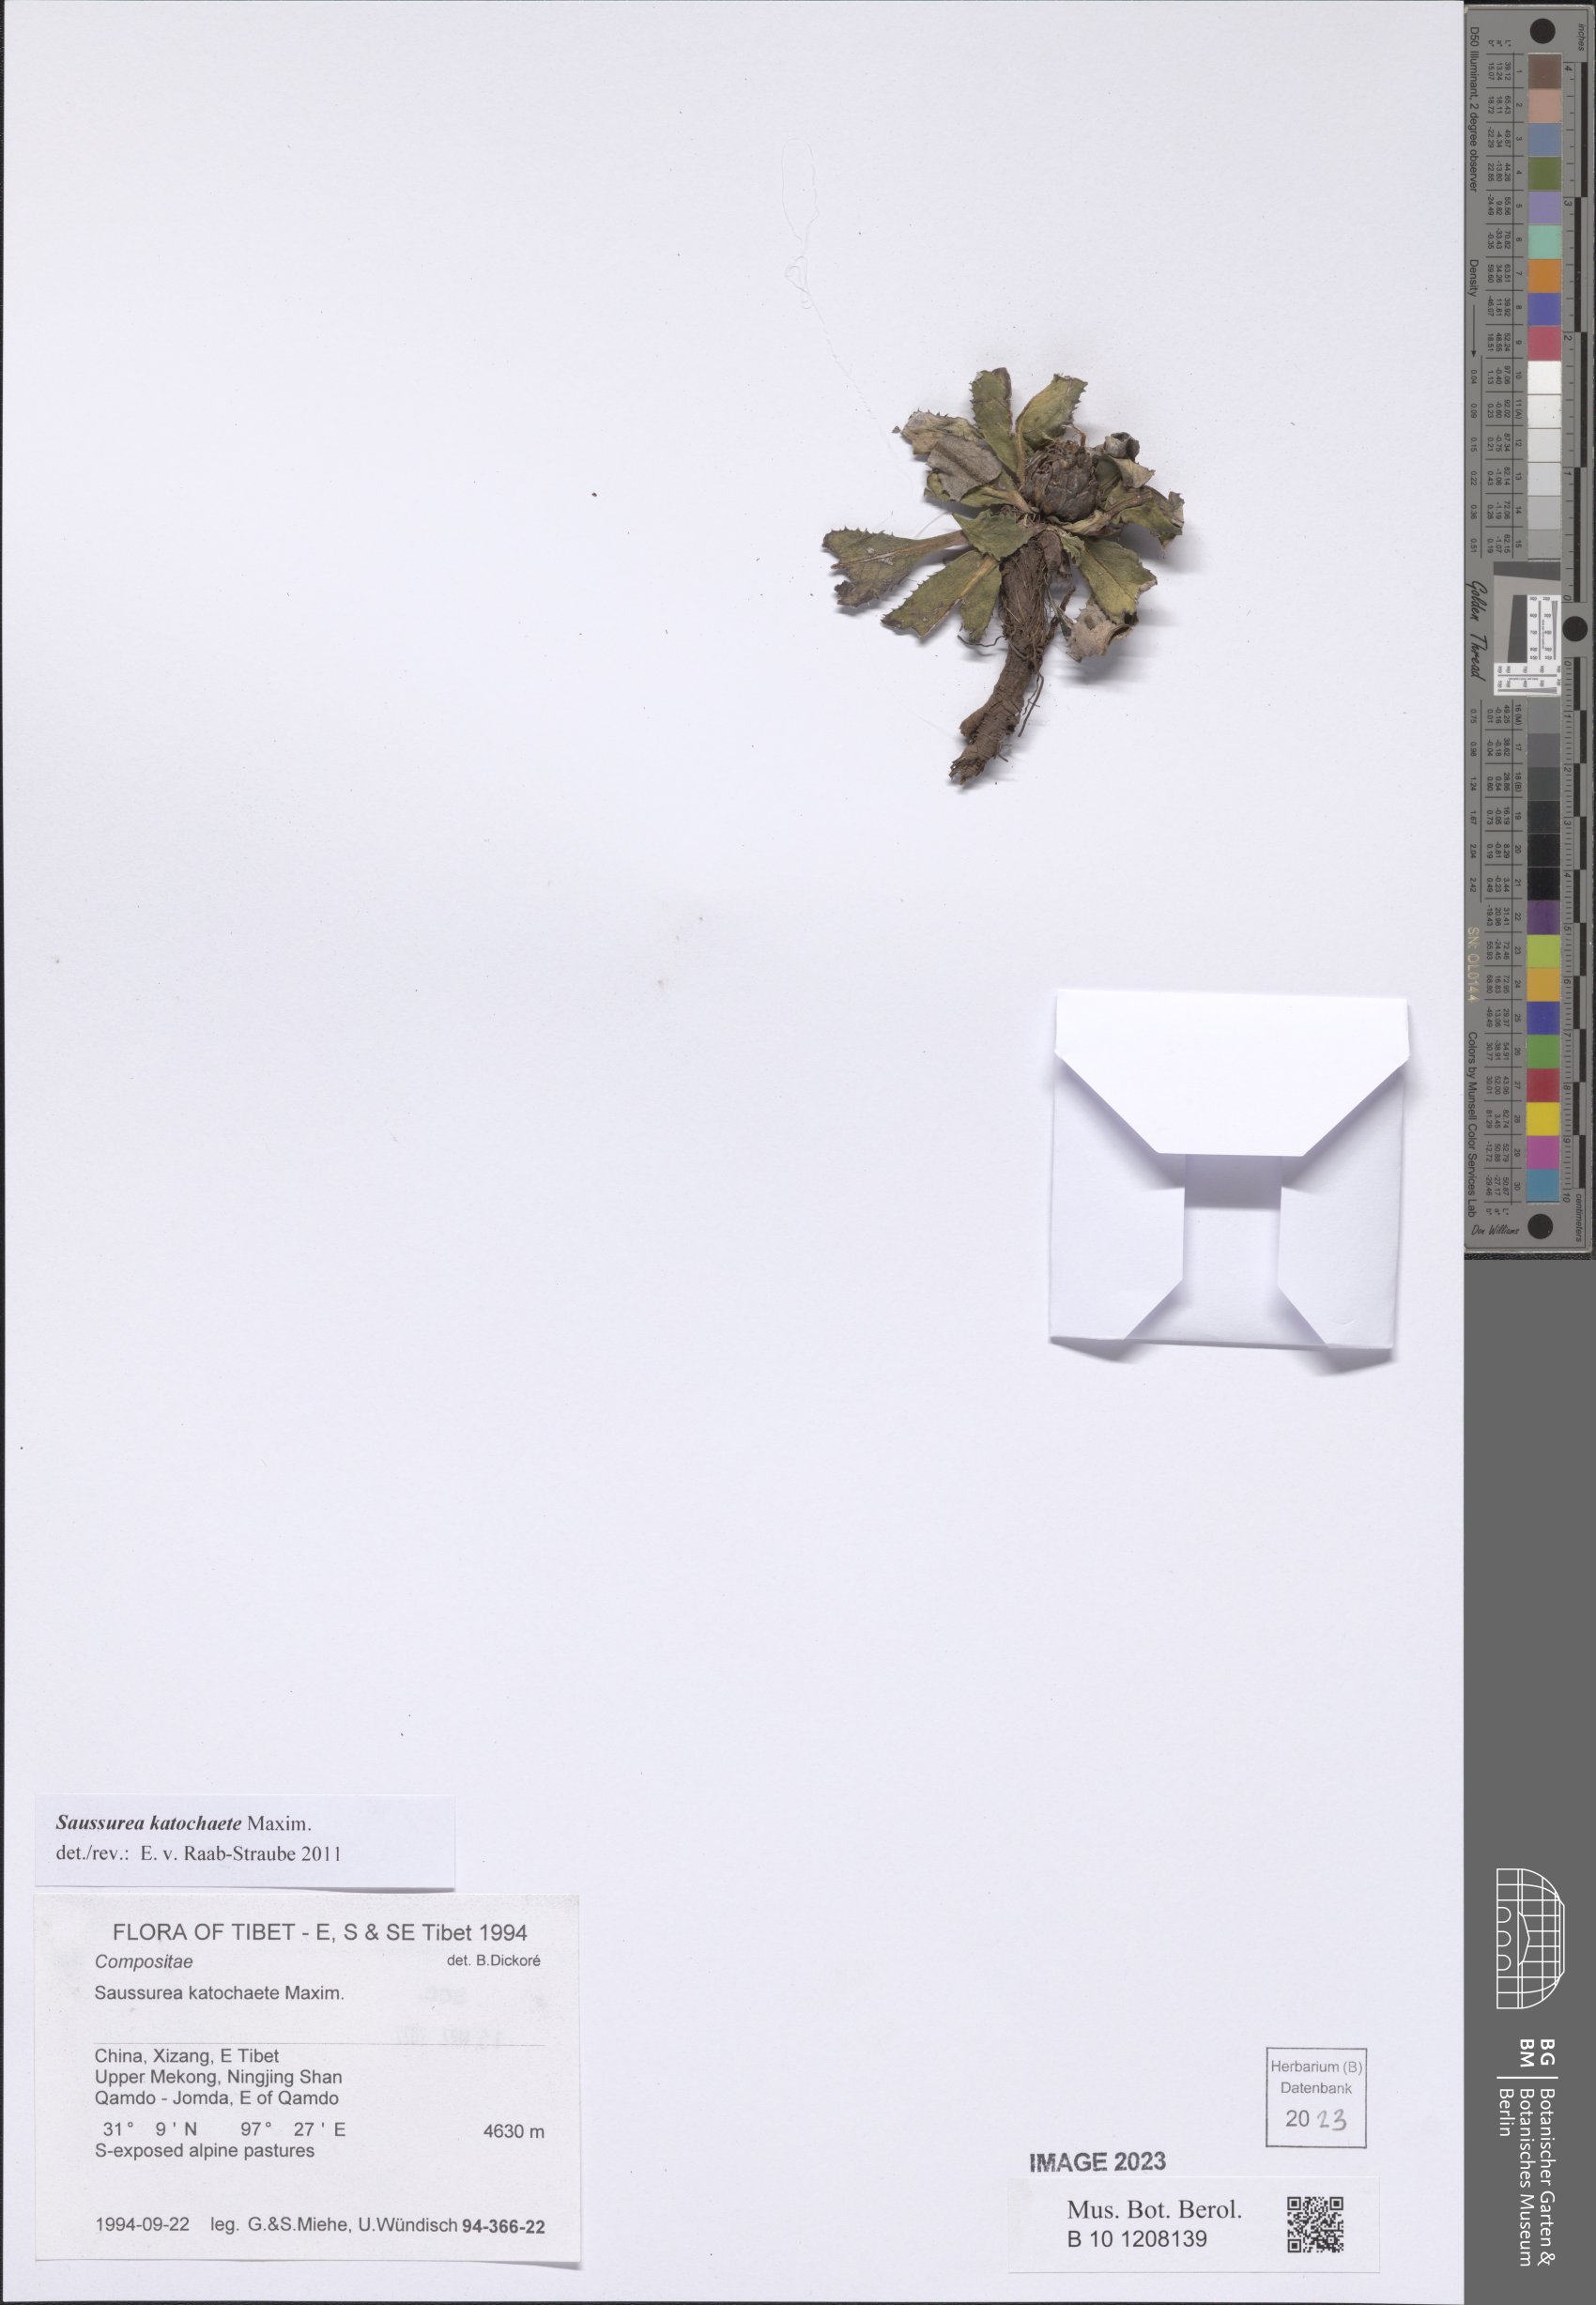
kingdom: Plantae
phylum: Tracheophyta
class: Magnoliopsida
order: Asterales
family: Asteraceae
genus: Saussurea
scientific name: Saussurea katochaete
